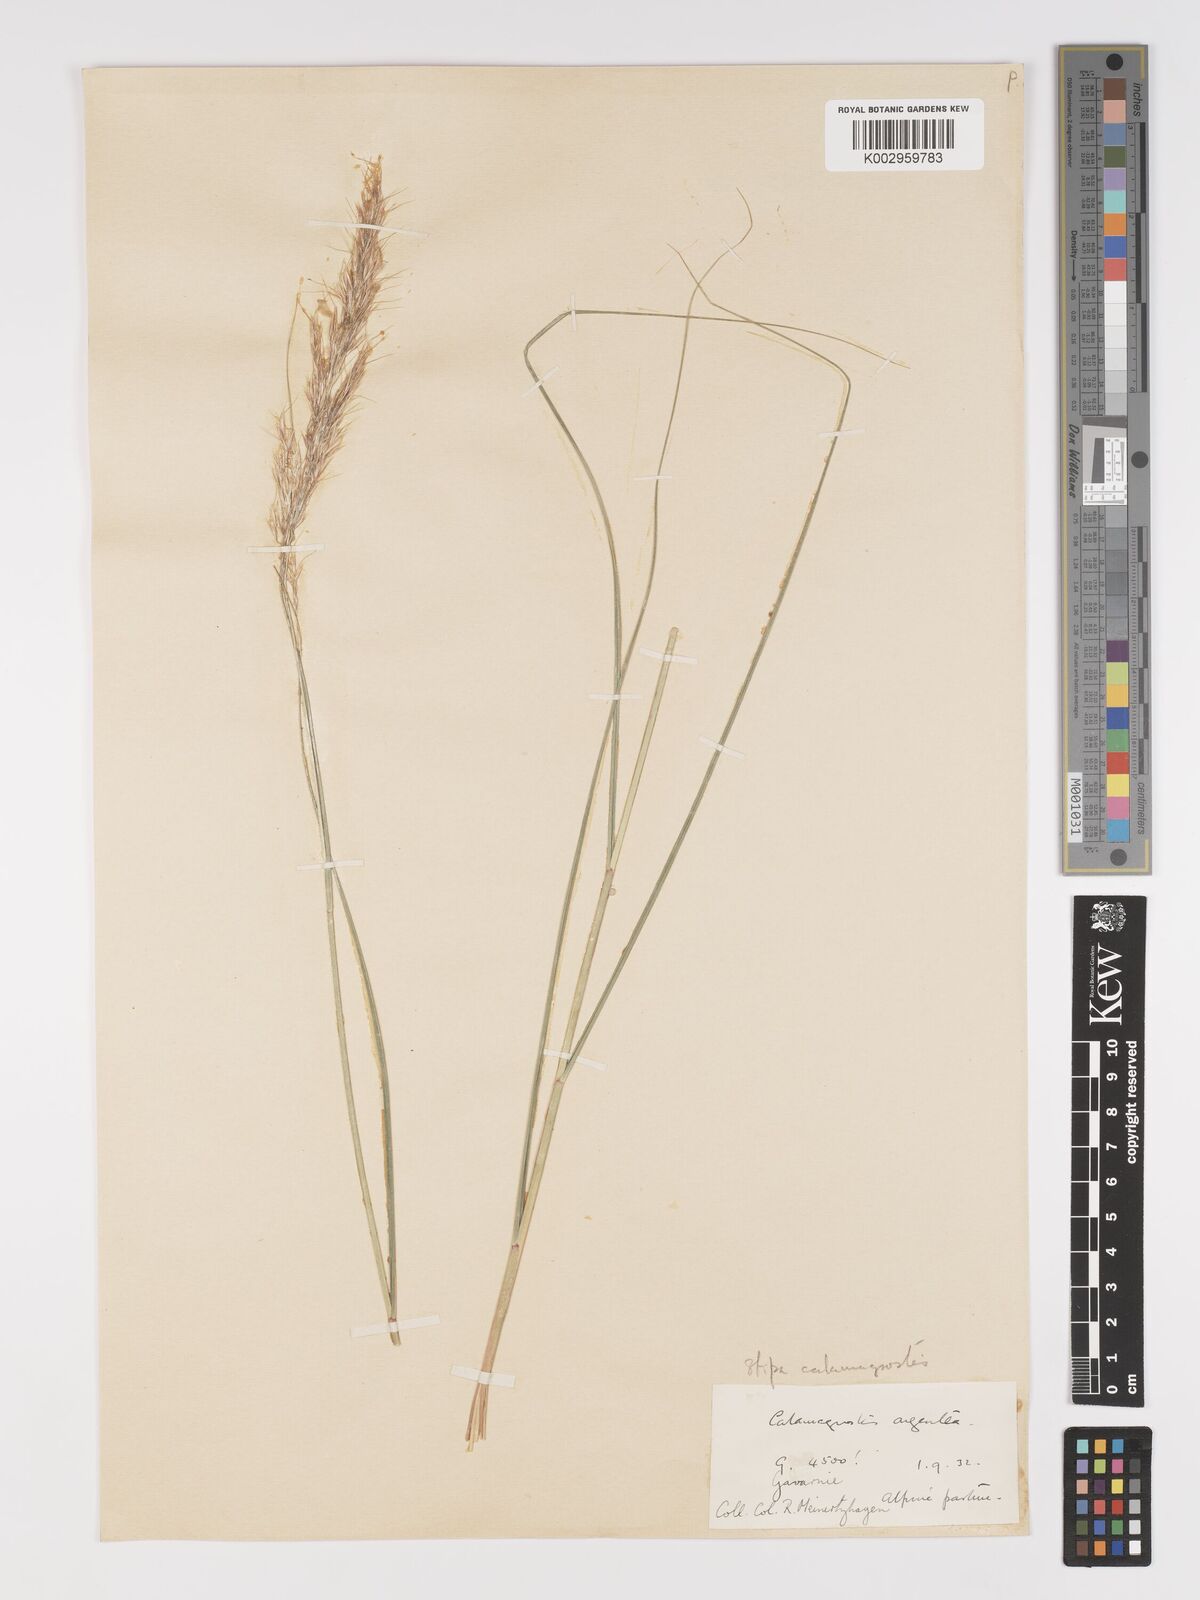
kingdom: Plantae
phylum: Tracheophyta
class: Liliopsida
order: Poales
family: Poaceae
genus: Achnatherum
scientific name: Achnatherum calamagrostis
